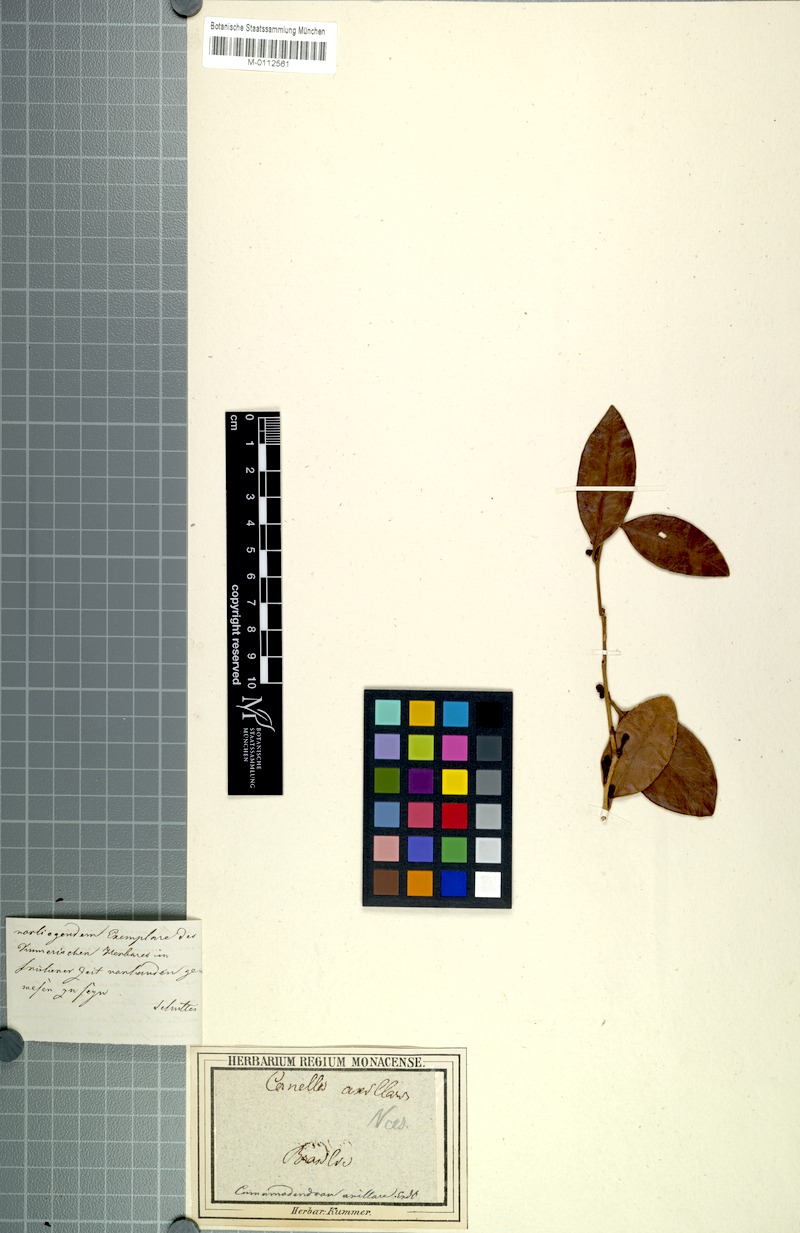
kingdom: Plantae
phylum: Tracheophyta
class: Magnoliopsida
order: Canellales
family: Canellaceae
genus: Cinnamodendron
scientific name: Cinnamodendron axillare
